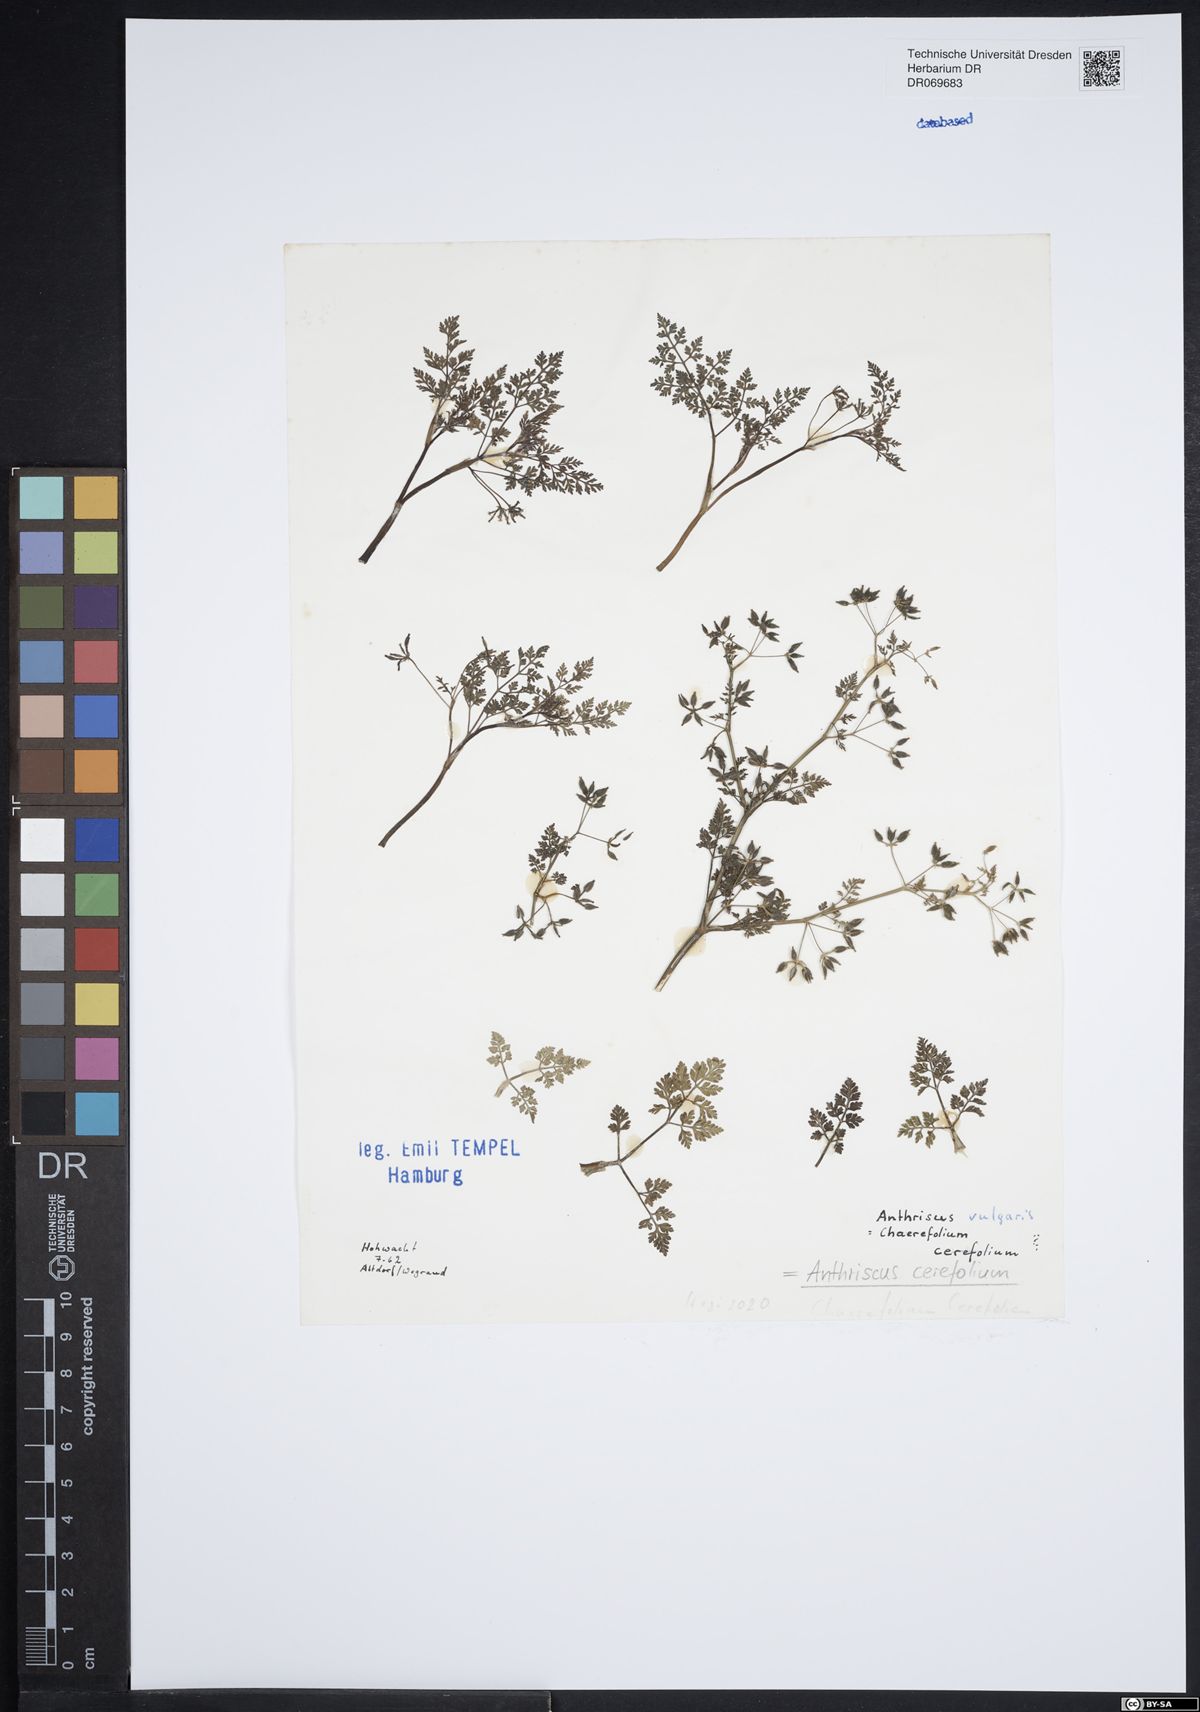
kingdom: Plantae
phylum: Tracheophyta
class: Magnoliopsida
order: Apiales
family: Apiaceae
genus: Anthriscus
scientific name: Anthriscus cerefolium
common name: Garden chervil
